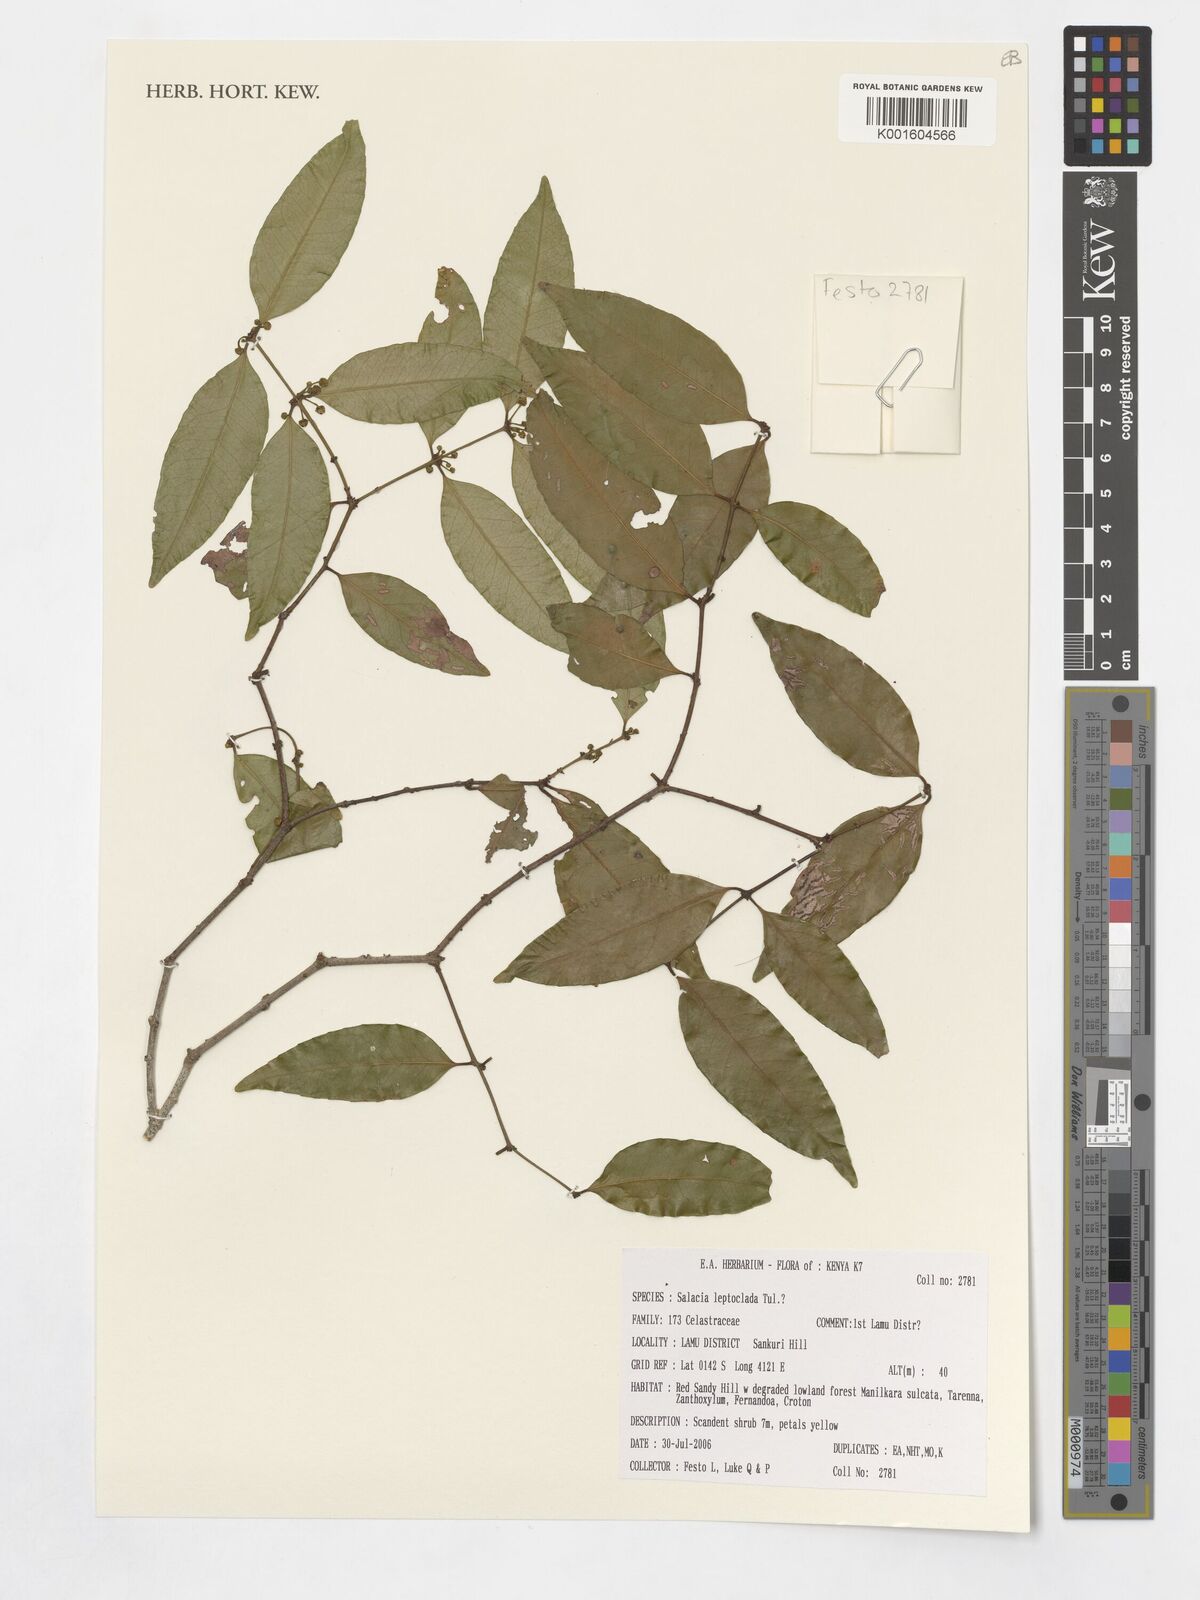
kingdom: Plantae
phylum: Tracheophyta
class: Magnoliopsida
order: Celastrales
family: Celastraceae
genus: Salacia
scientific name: Salacia leptoclada
